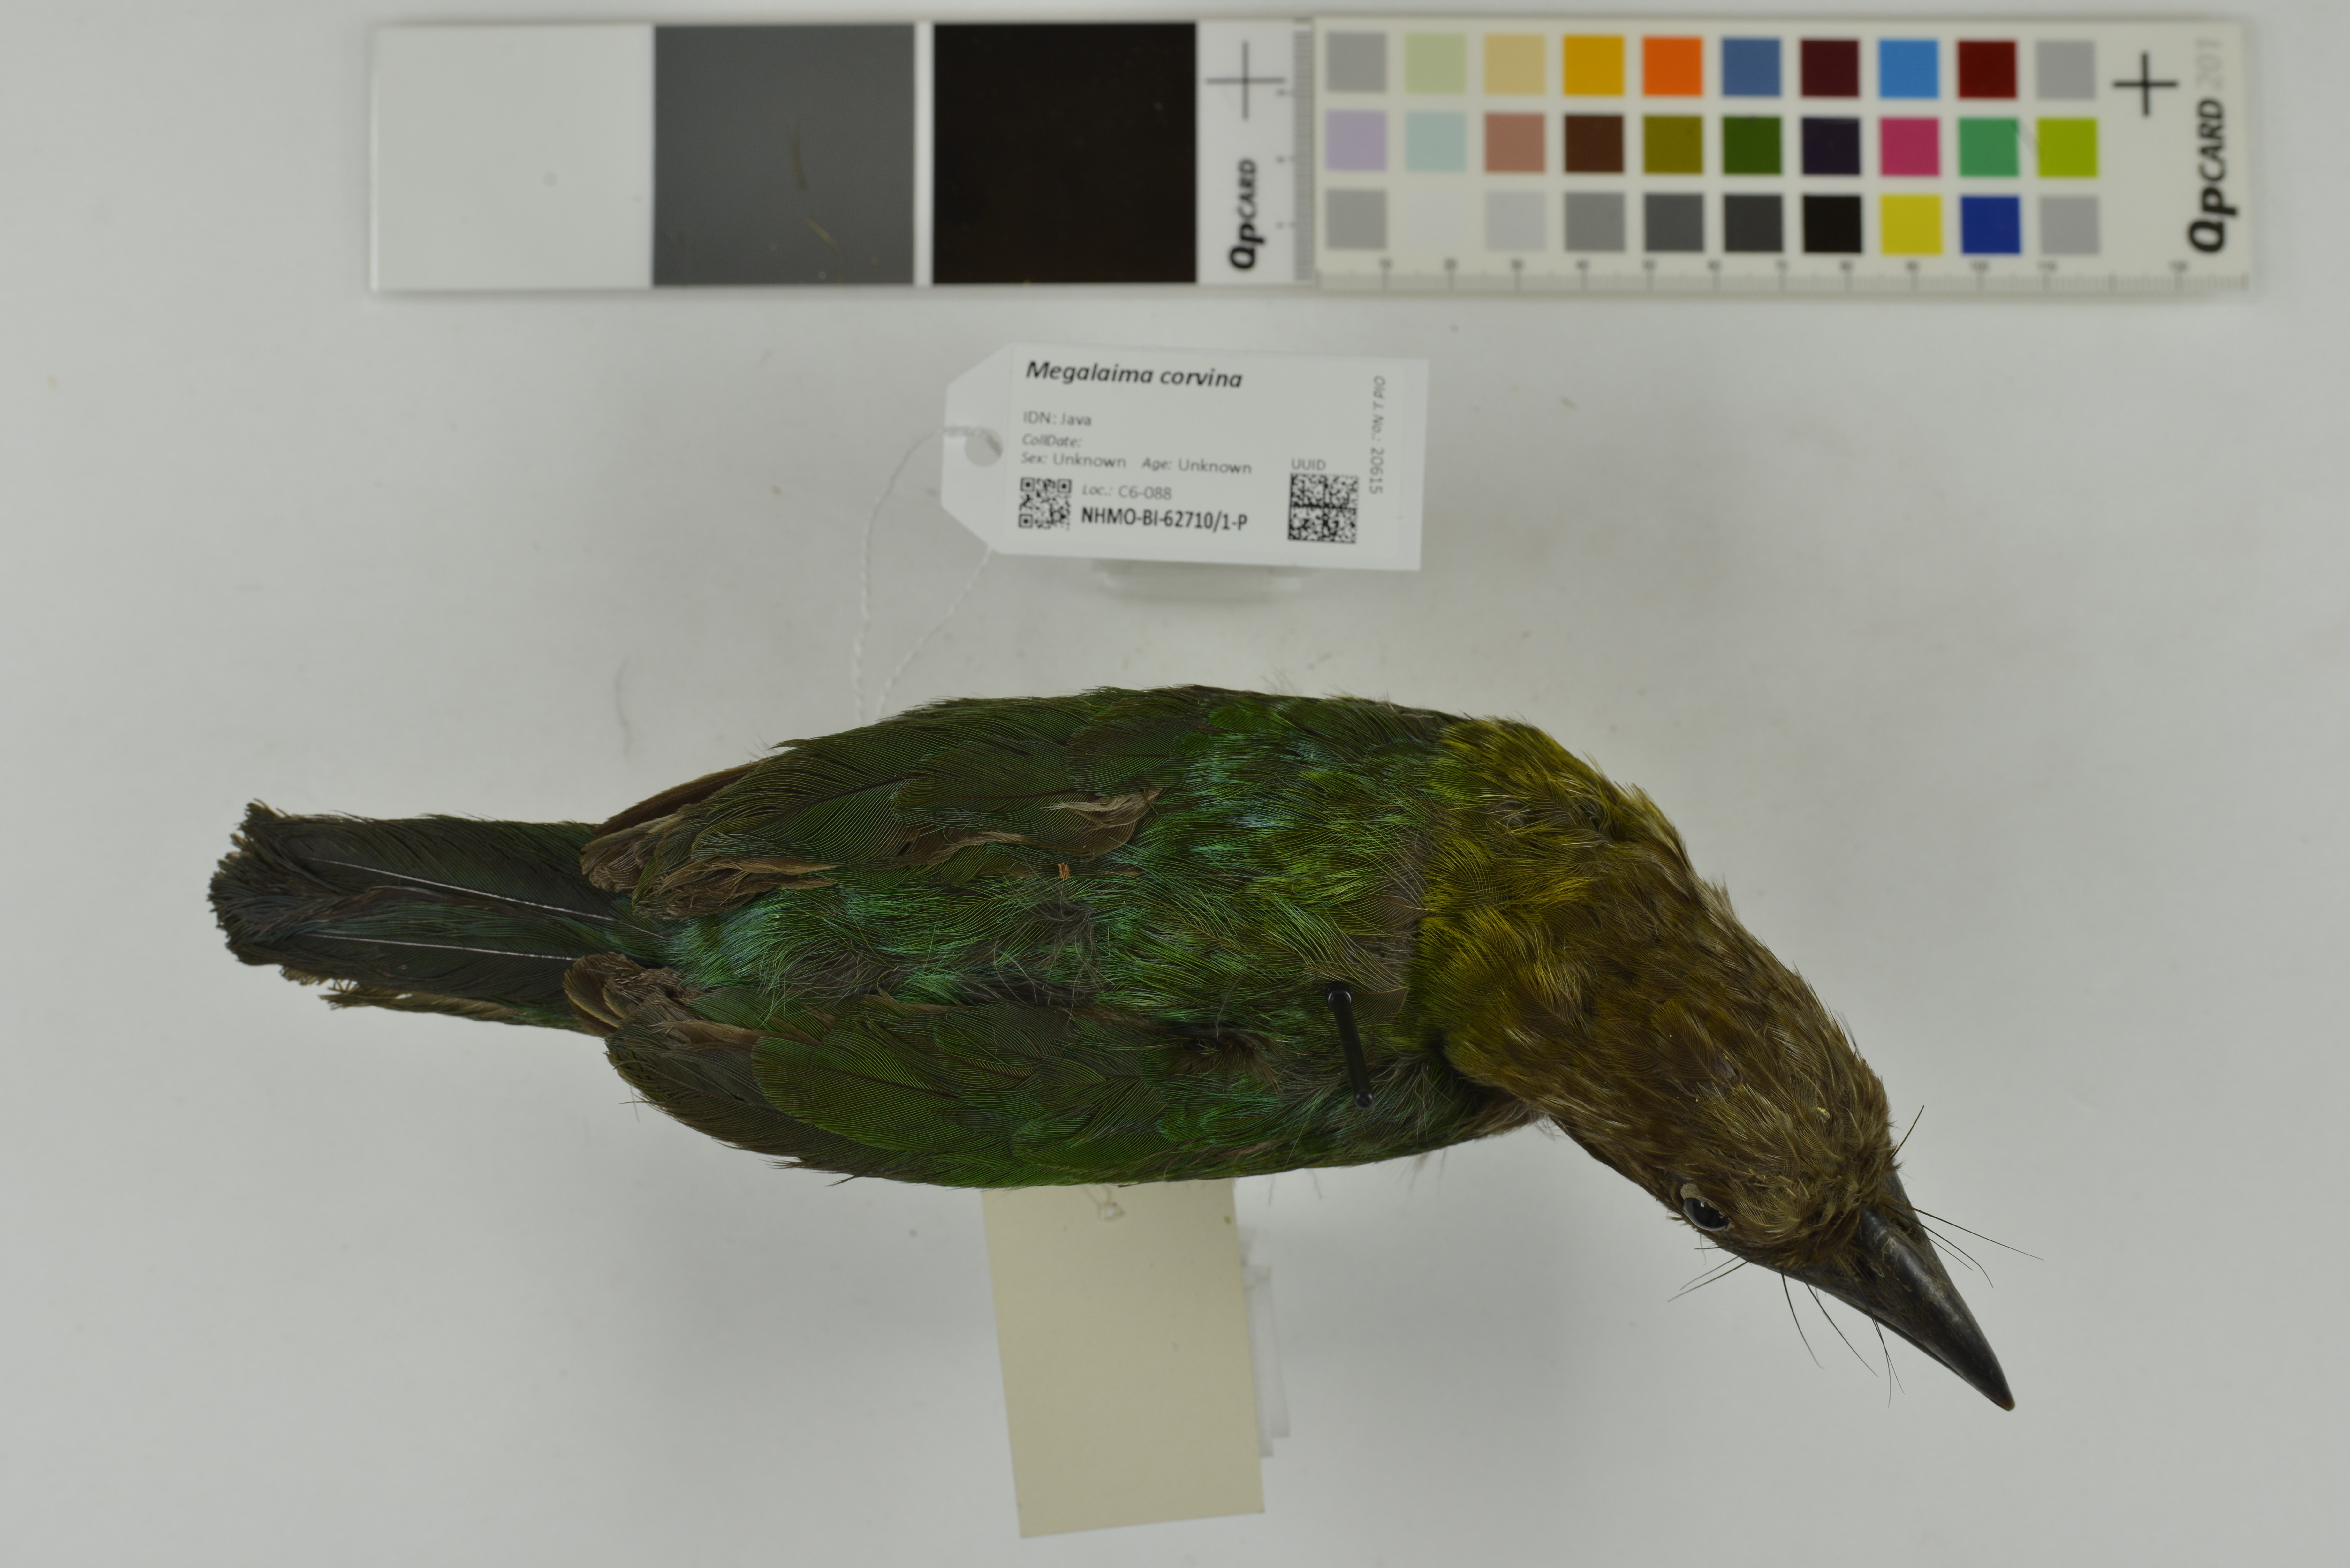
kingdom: Animalia
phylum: Chordata
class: Aves
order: Piciformes
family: Megalaimidae
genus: Psilopogon
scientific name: Psilopogon corvinus
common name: Brown-throated barbet
